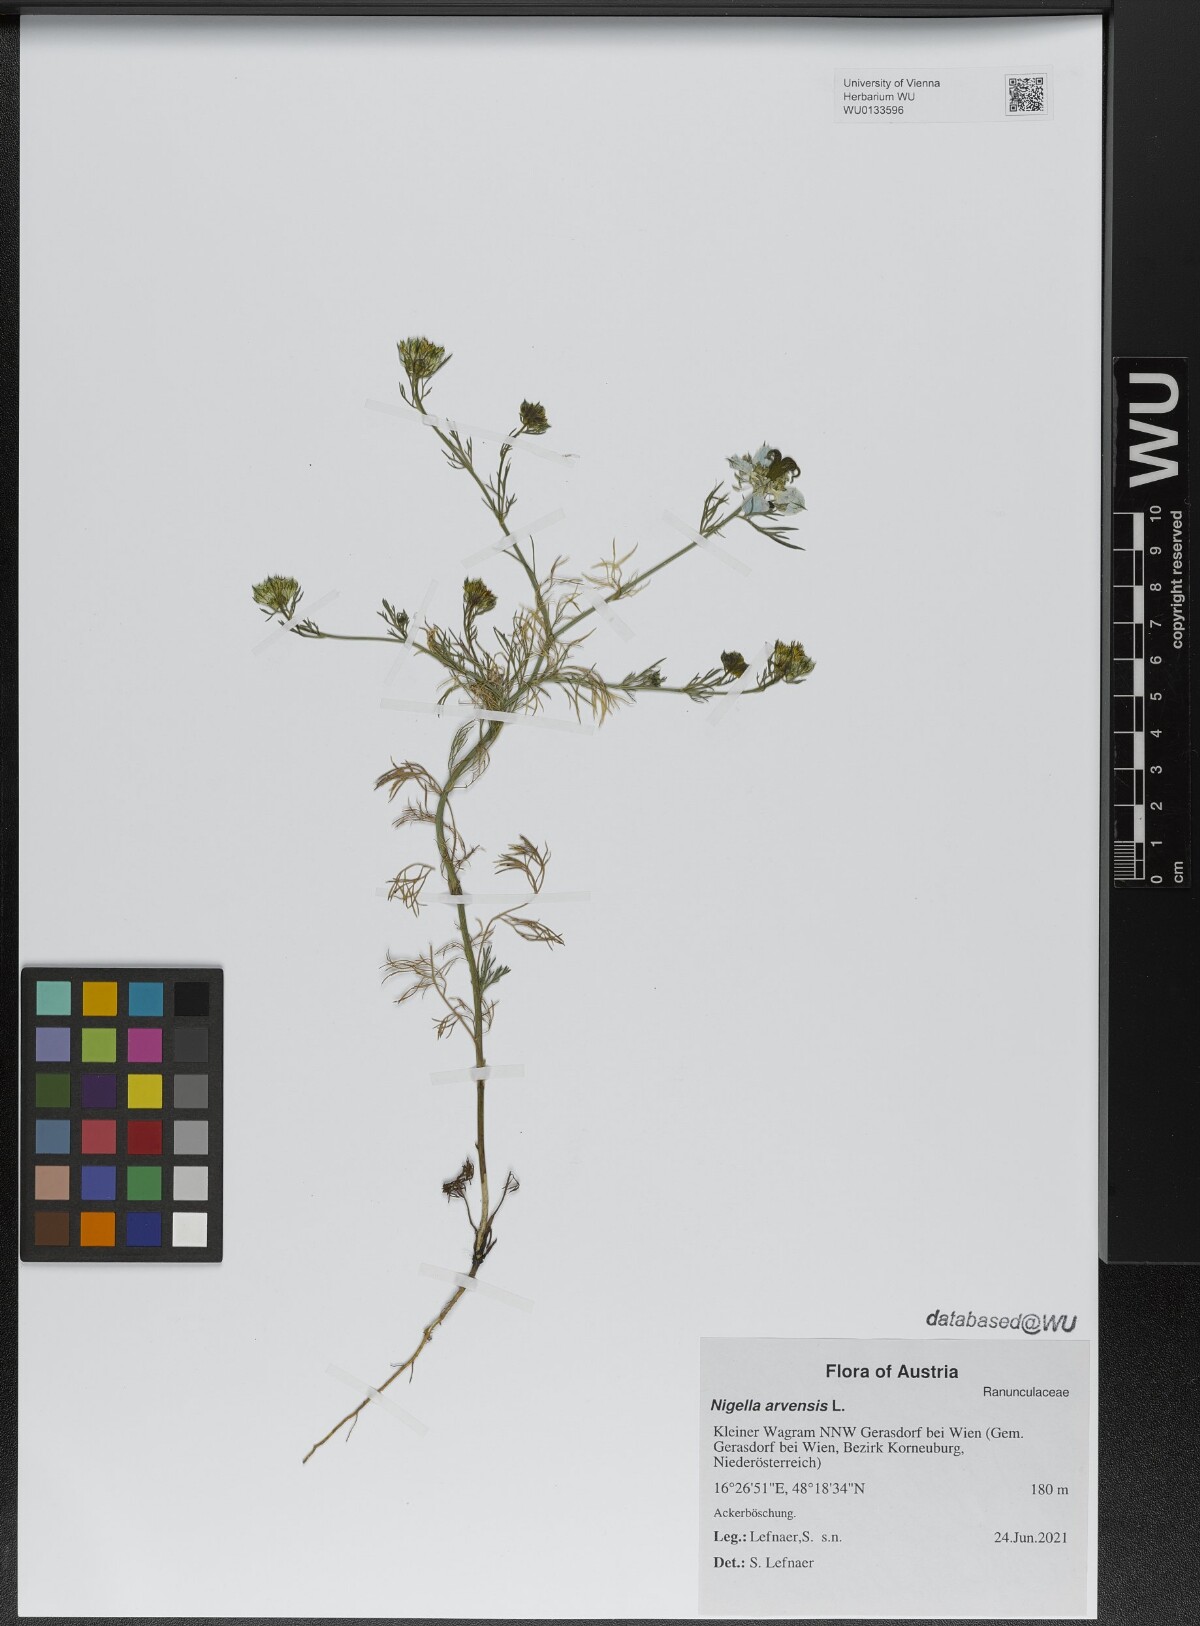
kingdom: Plantae
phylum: Tracheophyta
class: Magnoliopsida
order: Ranunculales
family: Ranunculaceae
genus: Nigella
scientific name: Nigella arvensis
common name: Wild fennel-flower
